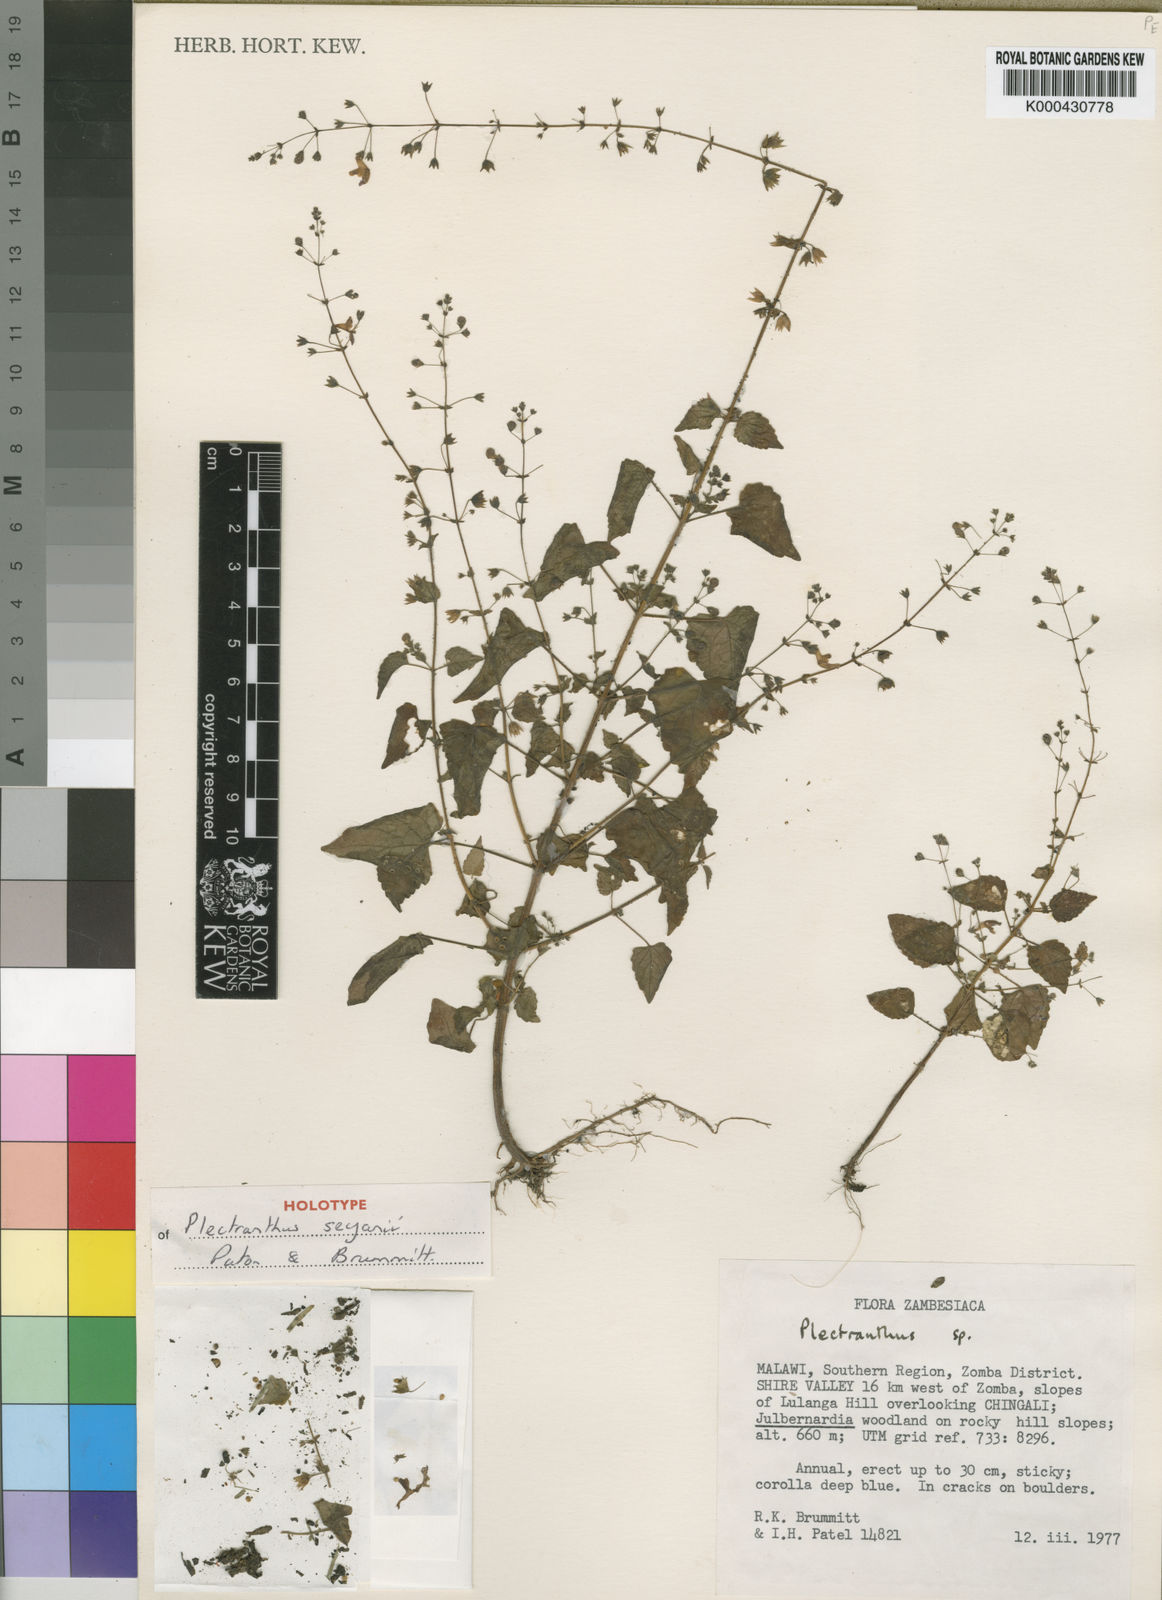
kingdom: Plantae
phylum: Tracheophyta
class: Magnoliopsida
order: Lamiales
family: Lamiaceae
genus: Equilabium
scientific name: Equilabium gracile
